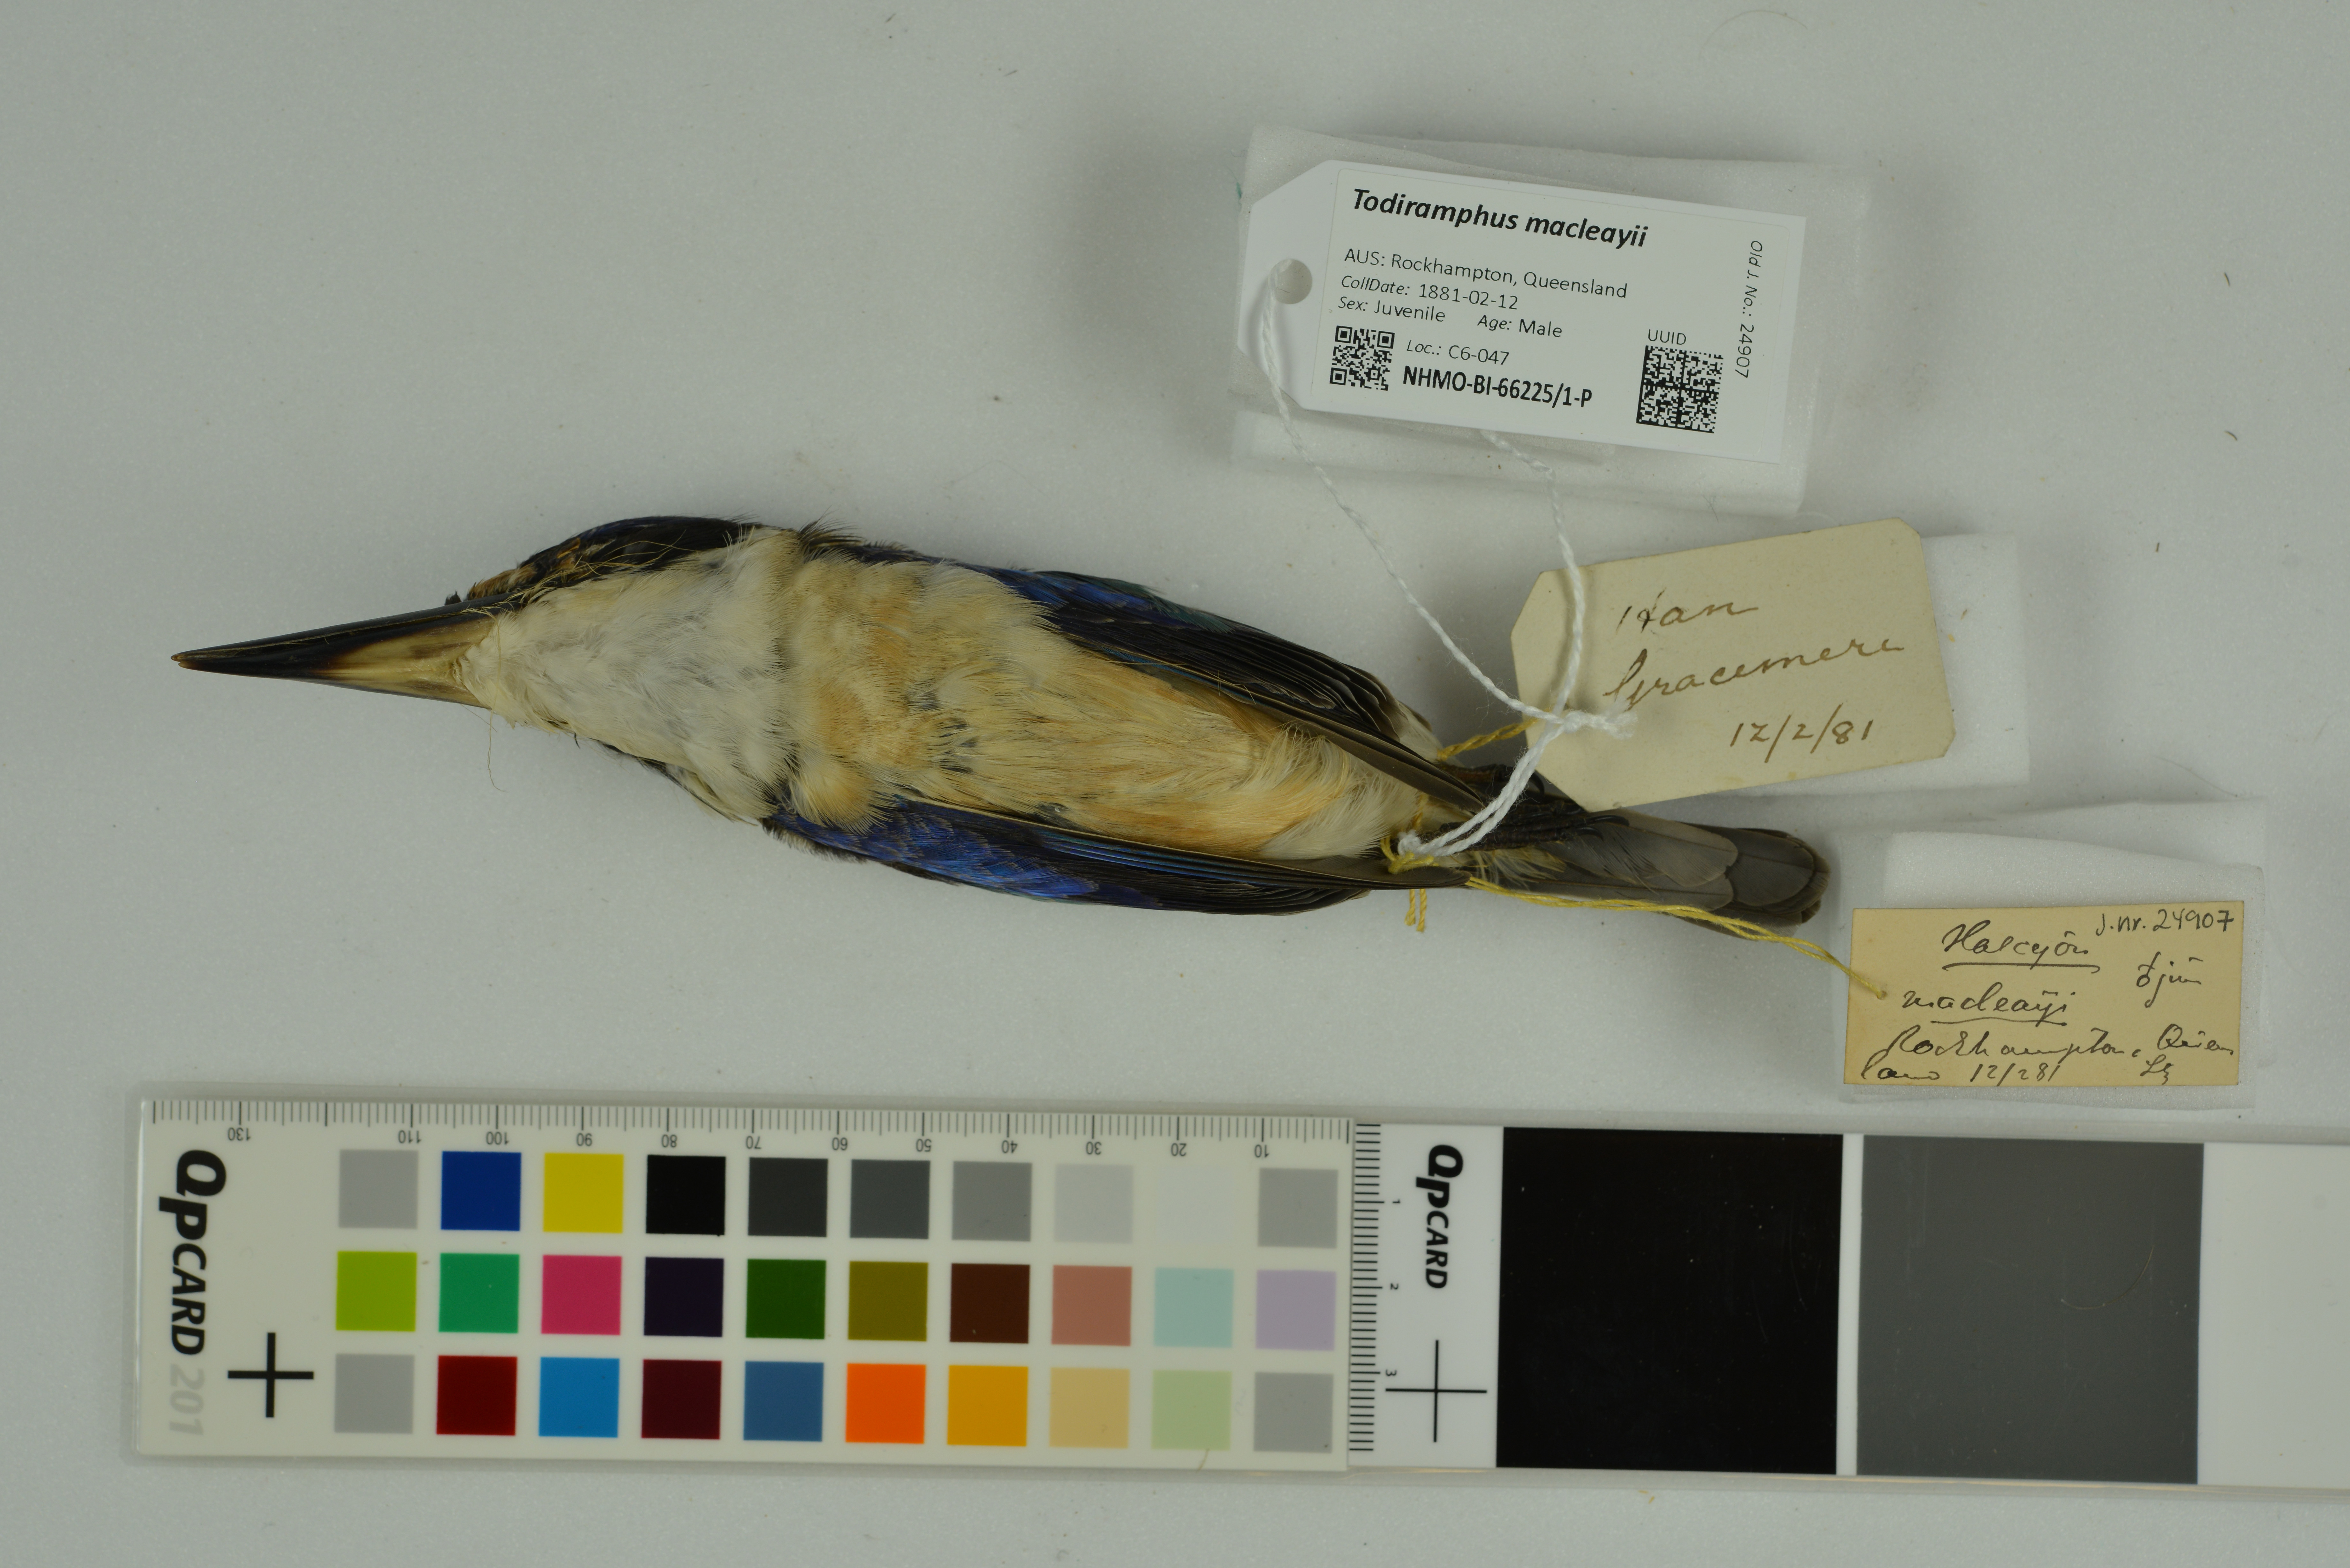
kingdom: Animalia
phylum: Chordata
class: Aves
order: Coraciiformes
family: Alcedinidae
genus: Todiramphus
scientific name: Todiramphus macleayii
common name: Forest kingfisher
